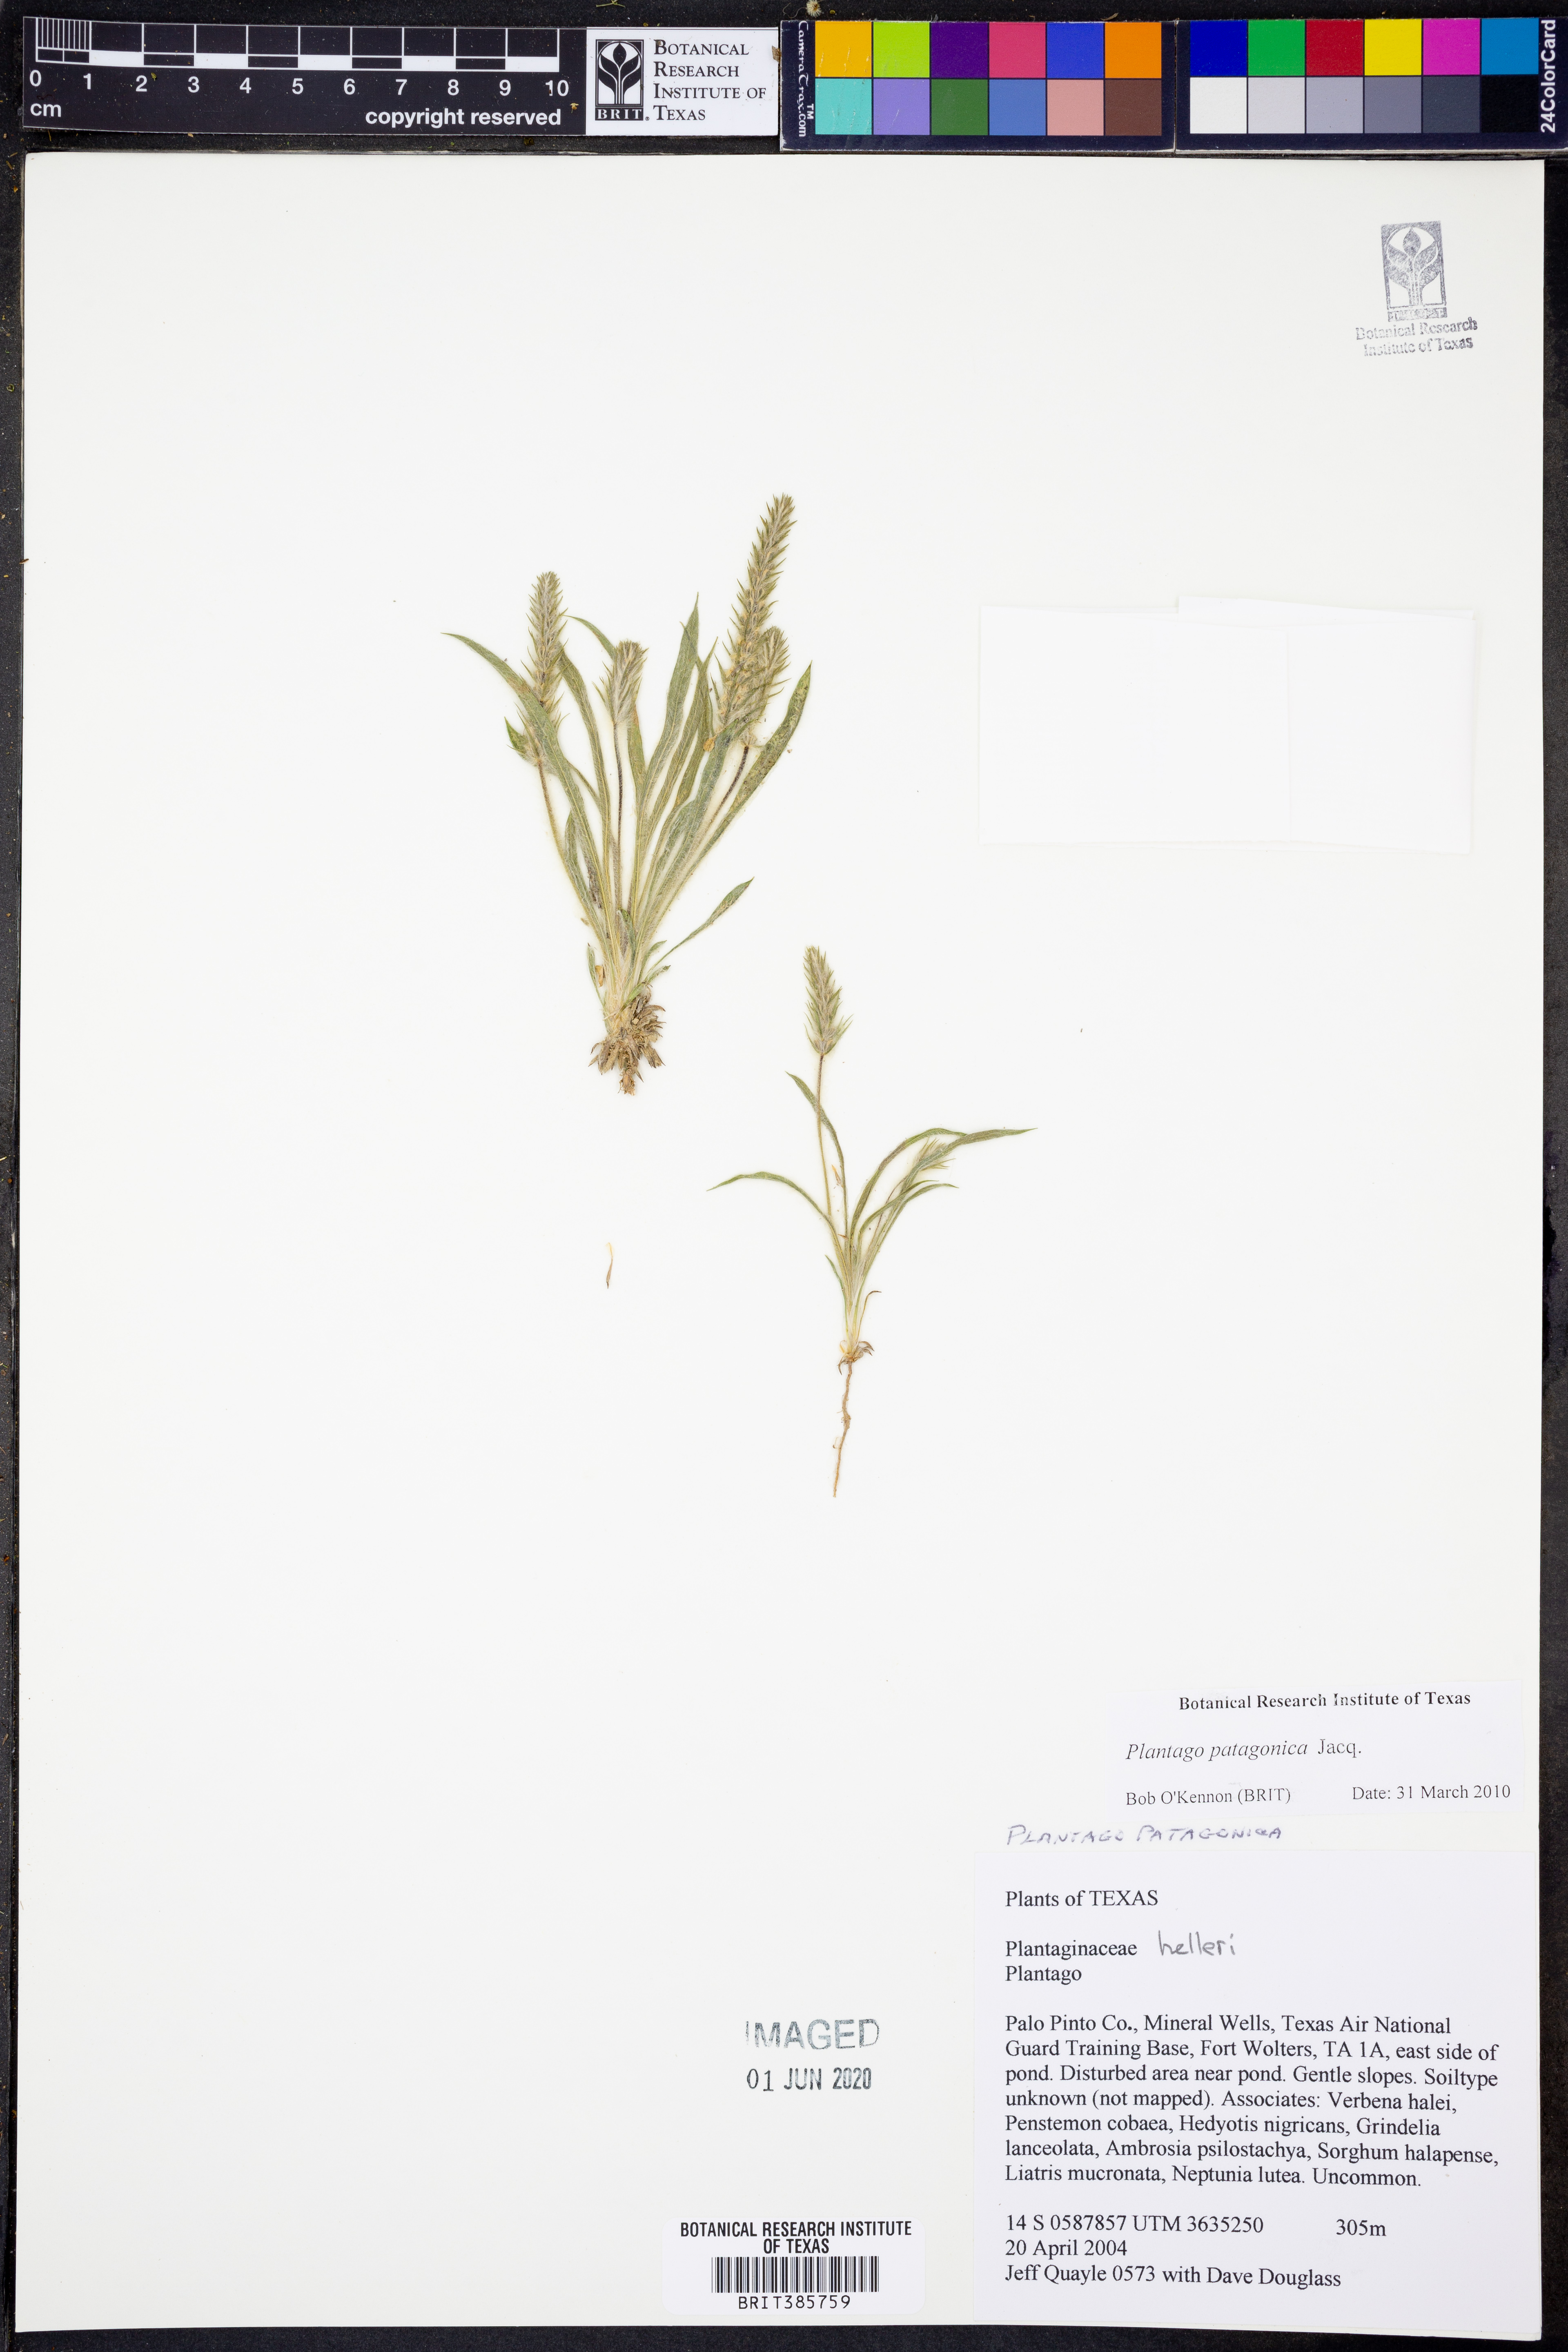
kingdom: Plantae
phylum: Tracheophyta
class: Magnoliopsida
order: Lamiales
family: Plantaginaceae
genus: Plantago
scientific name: Plantago patagonica
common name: Patagonia indian-wheat
